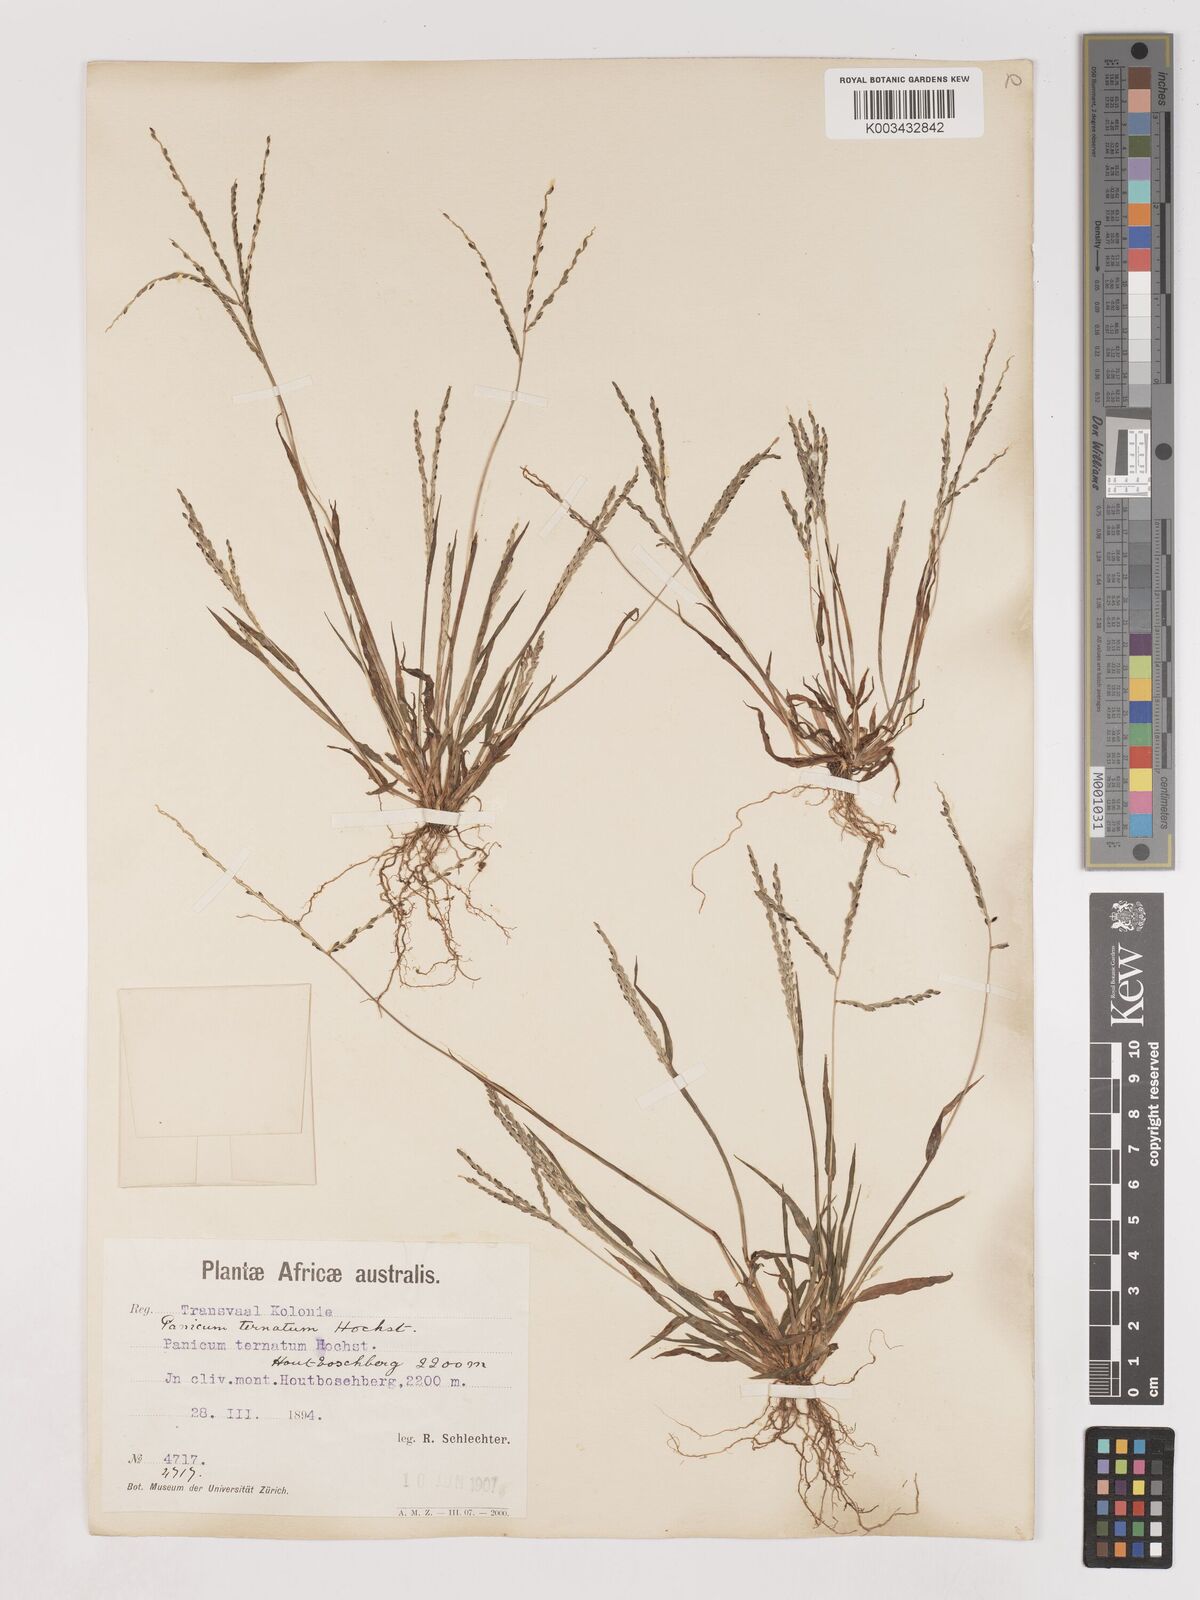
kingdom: Plantae
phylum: Tracheophyta
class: Liliopsida
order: Poales
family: Poaceae
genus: Digitaria
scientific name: Digitaria ternata
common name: Blackseed crabgrass
